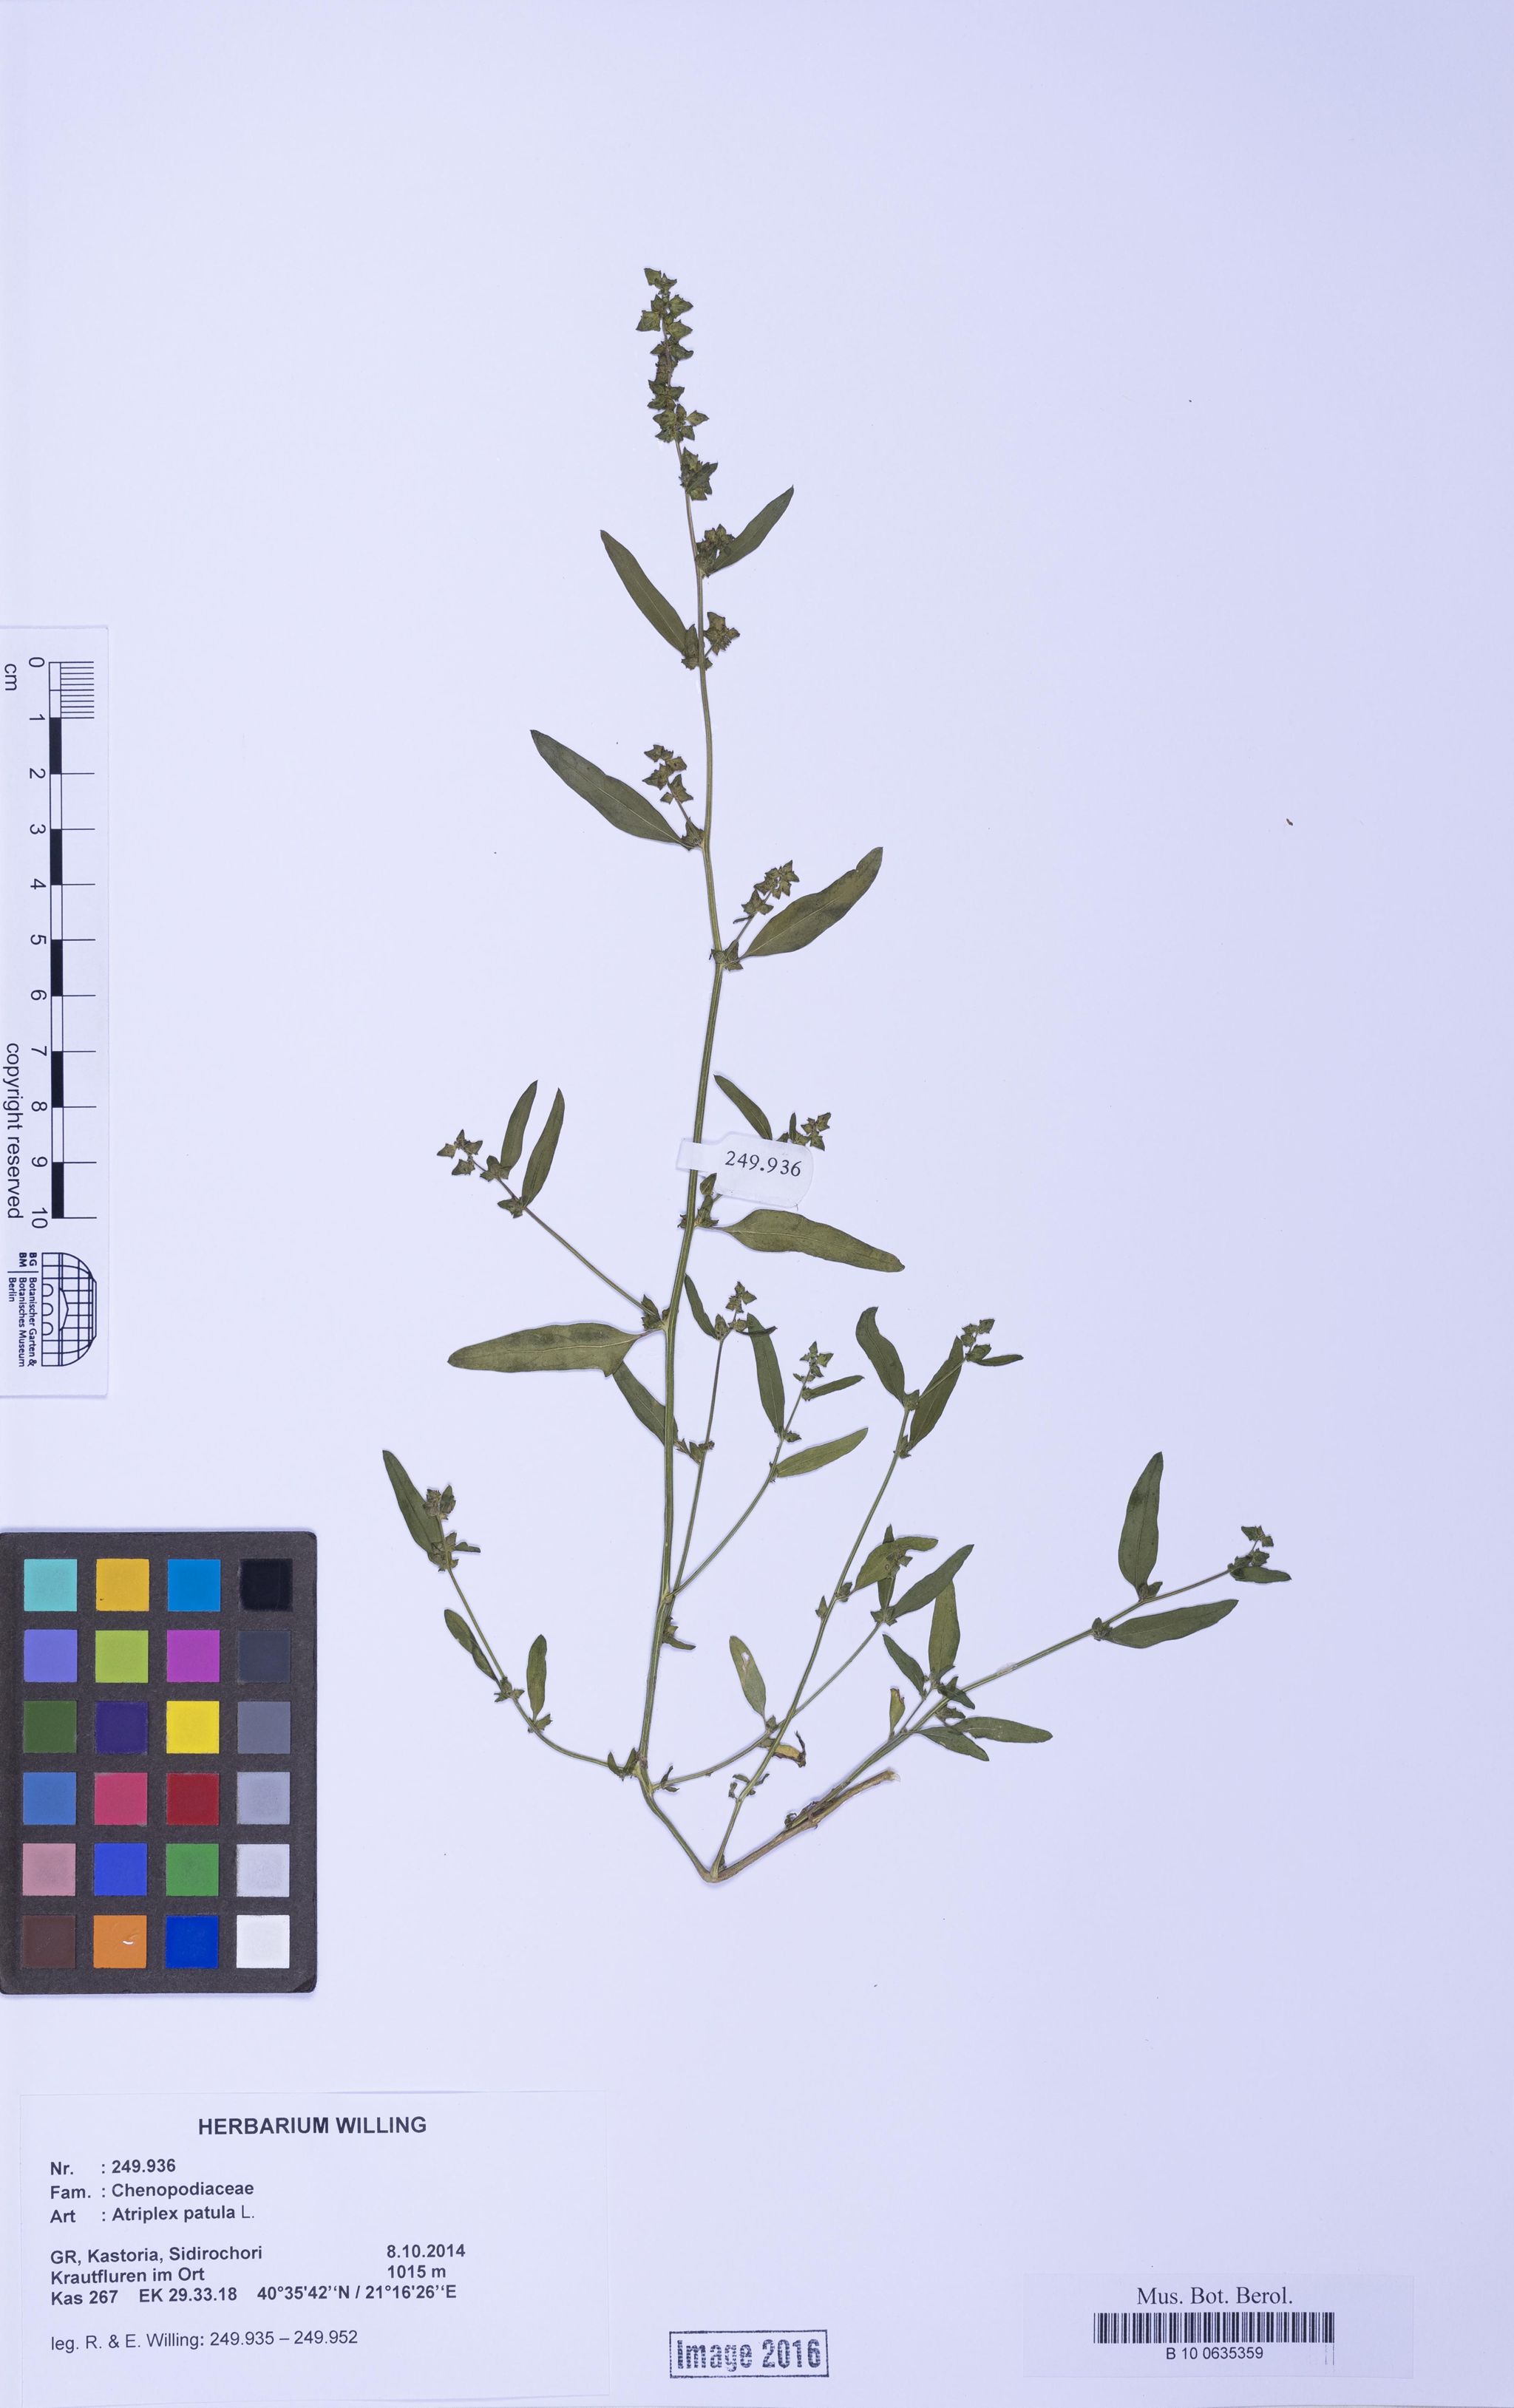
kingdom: Plantae
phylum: Tracheophyta
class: Magnoliopsida
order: Caryophyllales
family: Amaranthaceae
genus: Atriplex
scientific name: Atriplex patula
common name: Common orache
